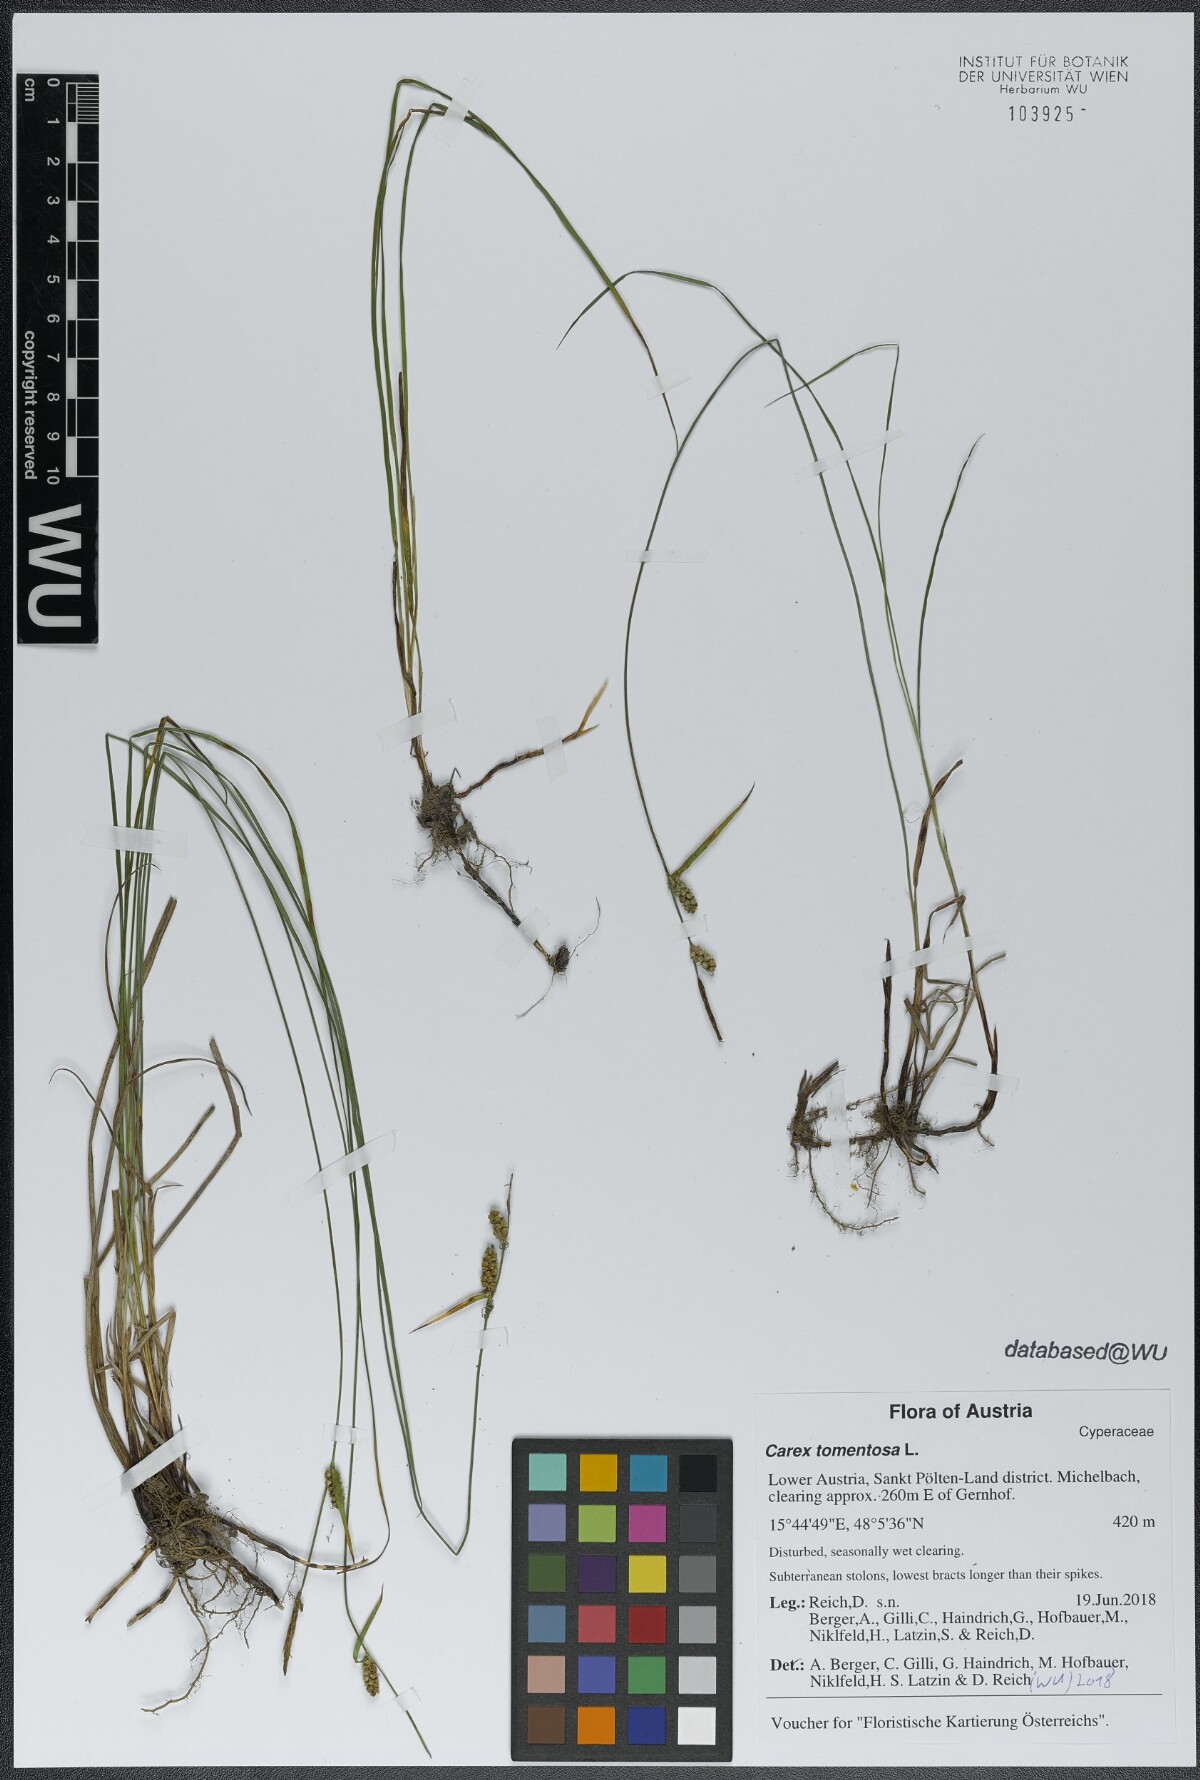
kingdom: Plantae
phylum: Tracheophyta
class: Liliopsida
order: Poales
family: Cyperaceae
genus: Carex
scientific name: Carex tomentosa
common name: Downy-fruited sedge
